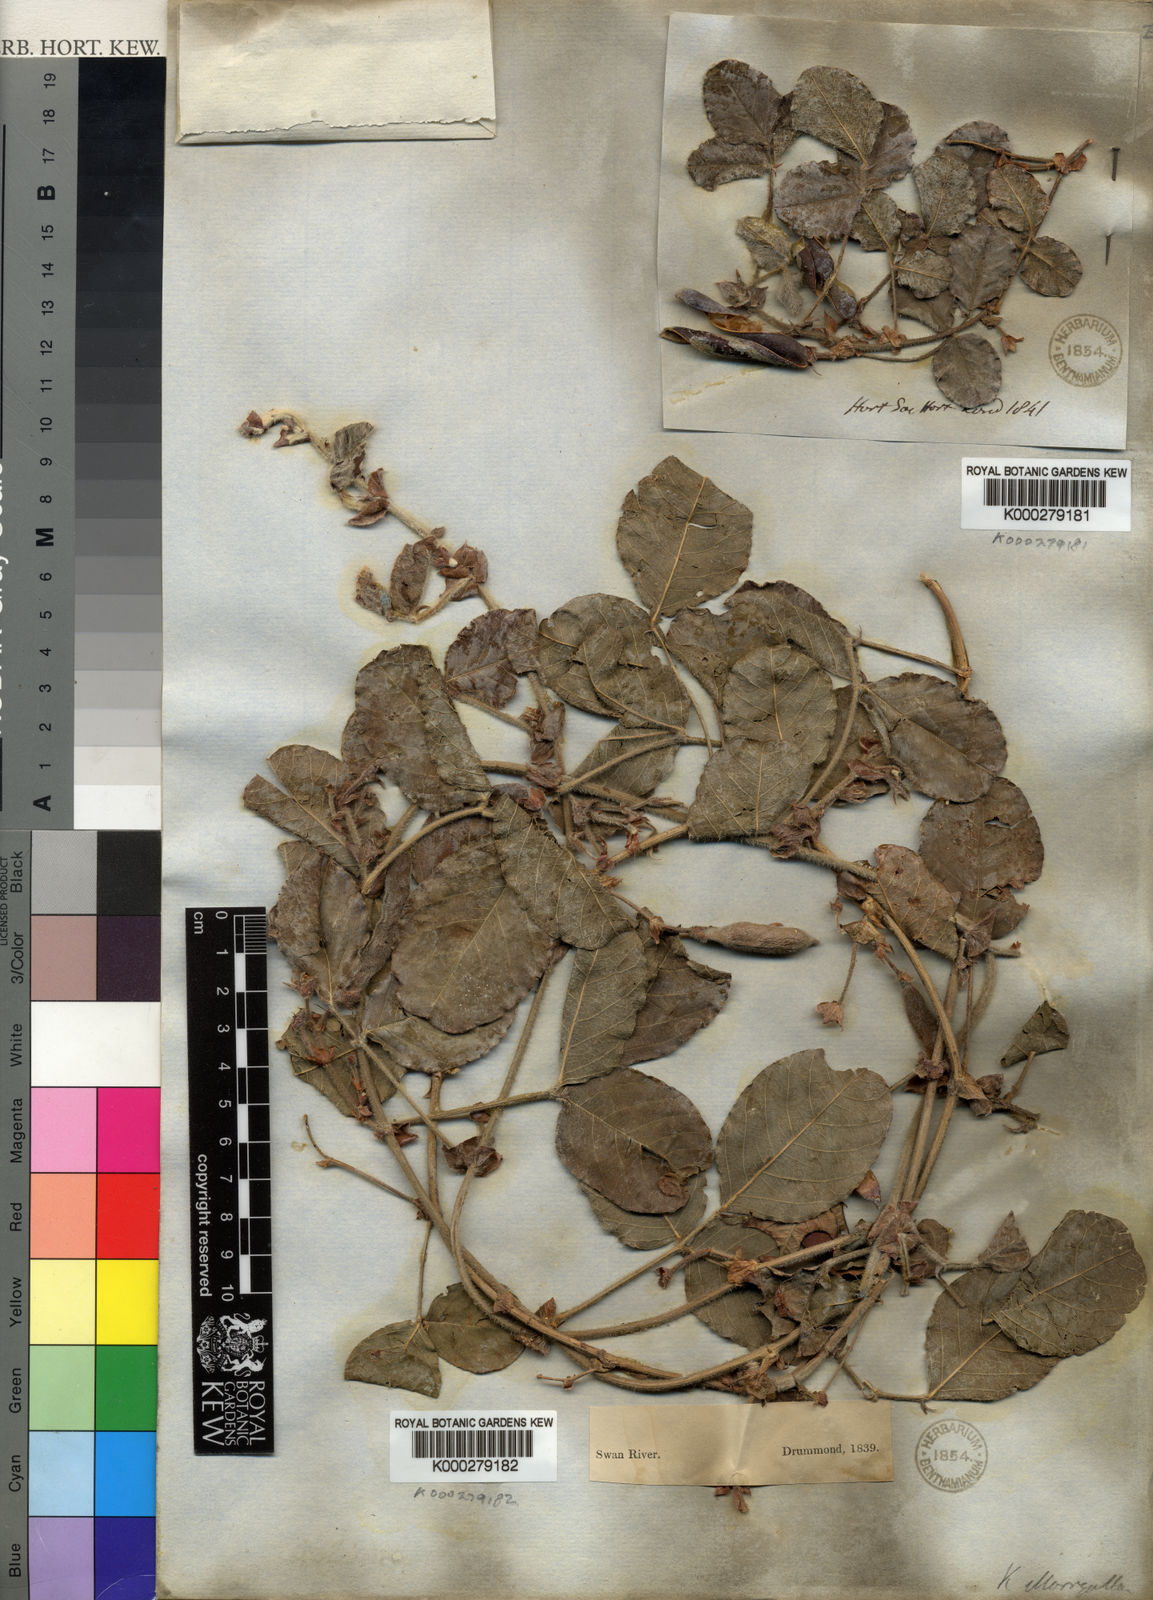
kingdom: Plantae
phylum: Tracheophyta
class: Magnoliopsida
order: Fabales
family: Fabaceae
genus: Kennedia
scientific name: Kennedia lateritia
